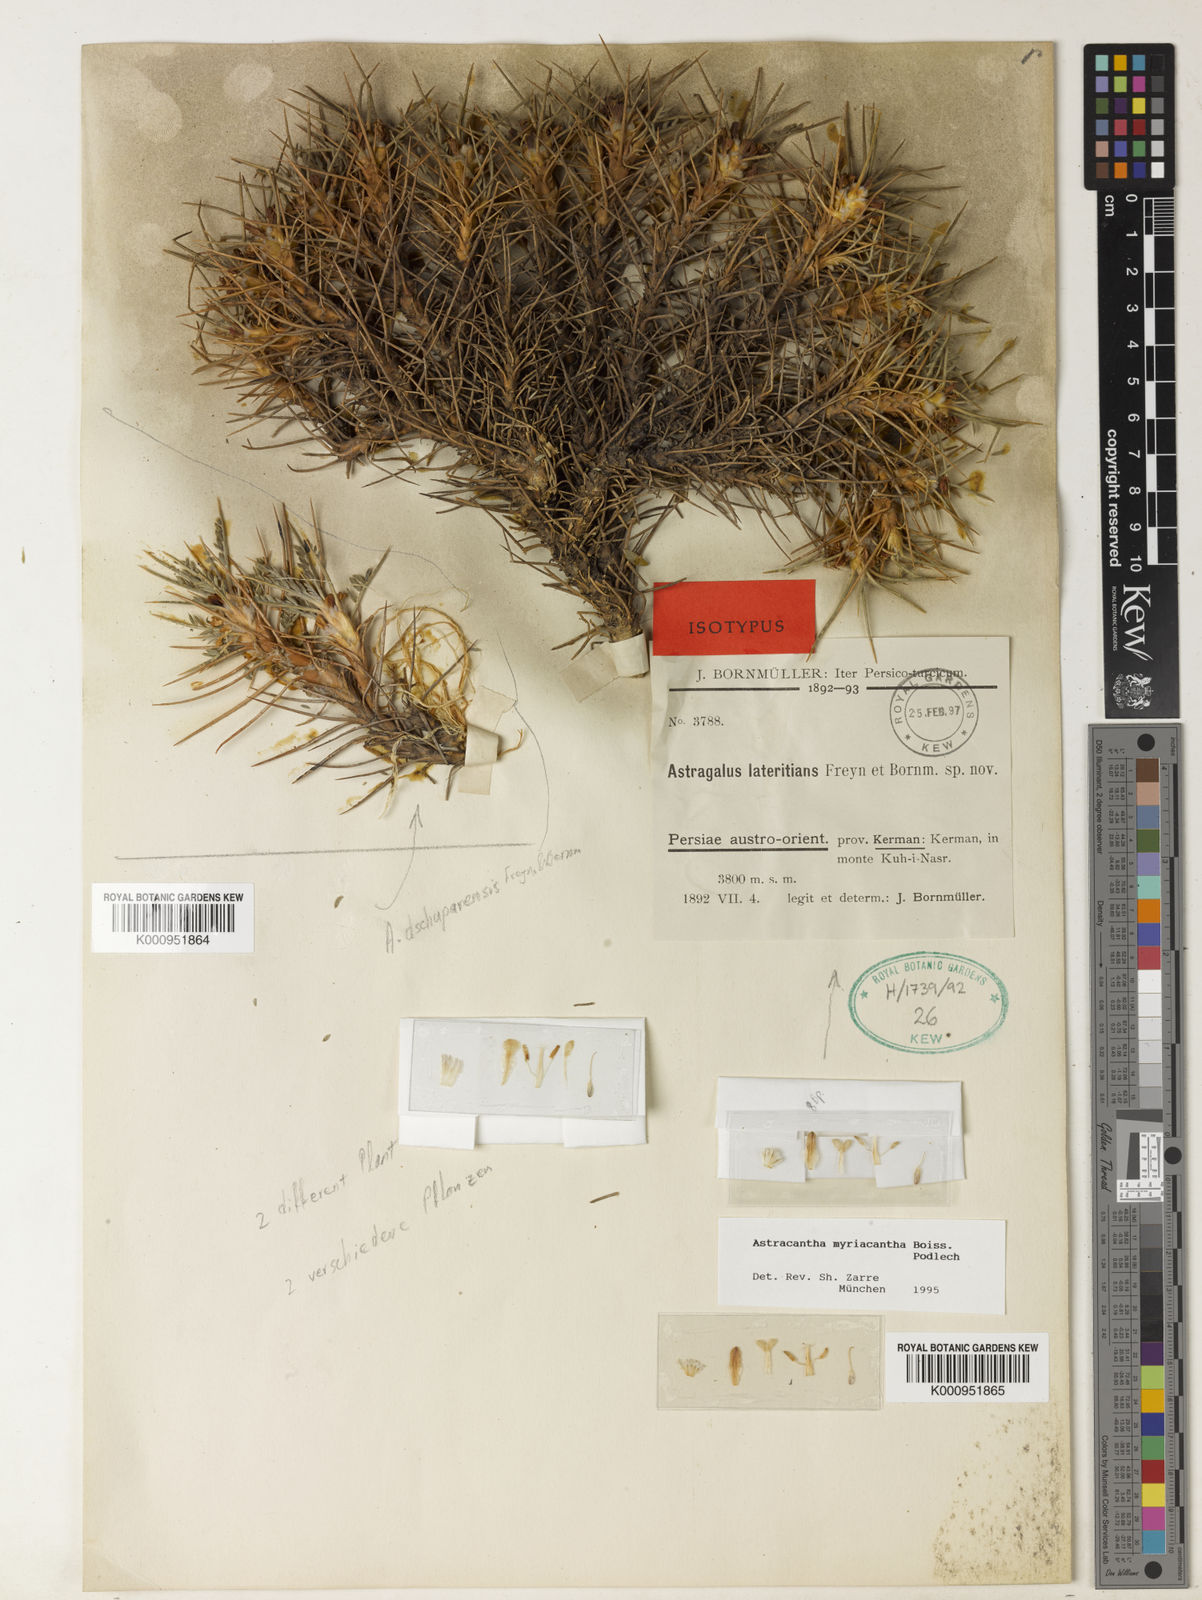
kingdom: Plantae
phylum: Tracheophyta
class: Magnoliopsida
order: Fabales
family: Fabaceae
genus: Astragalus
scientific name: Astragalus dschuparensis
